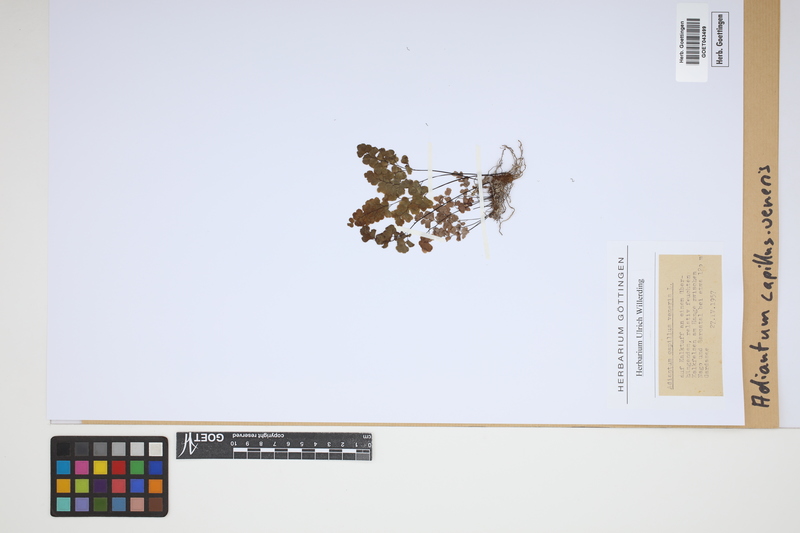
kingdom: Plantae
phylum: Tracheophyta
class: Polypodiopsida
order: Polypodiales
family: Pteridaceae
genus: Adiantum
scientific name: Adiantum capillus-veneris
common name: Maidenhair fern
